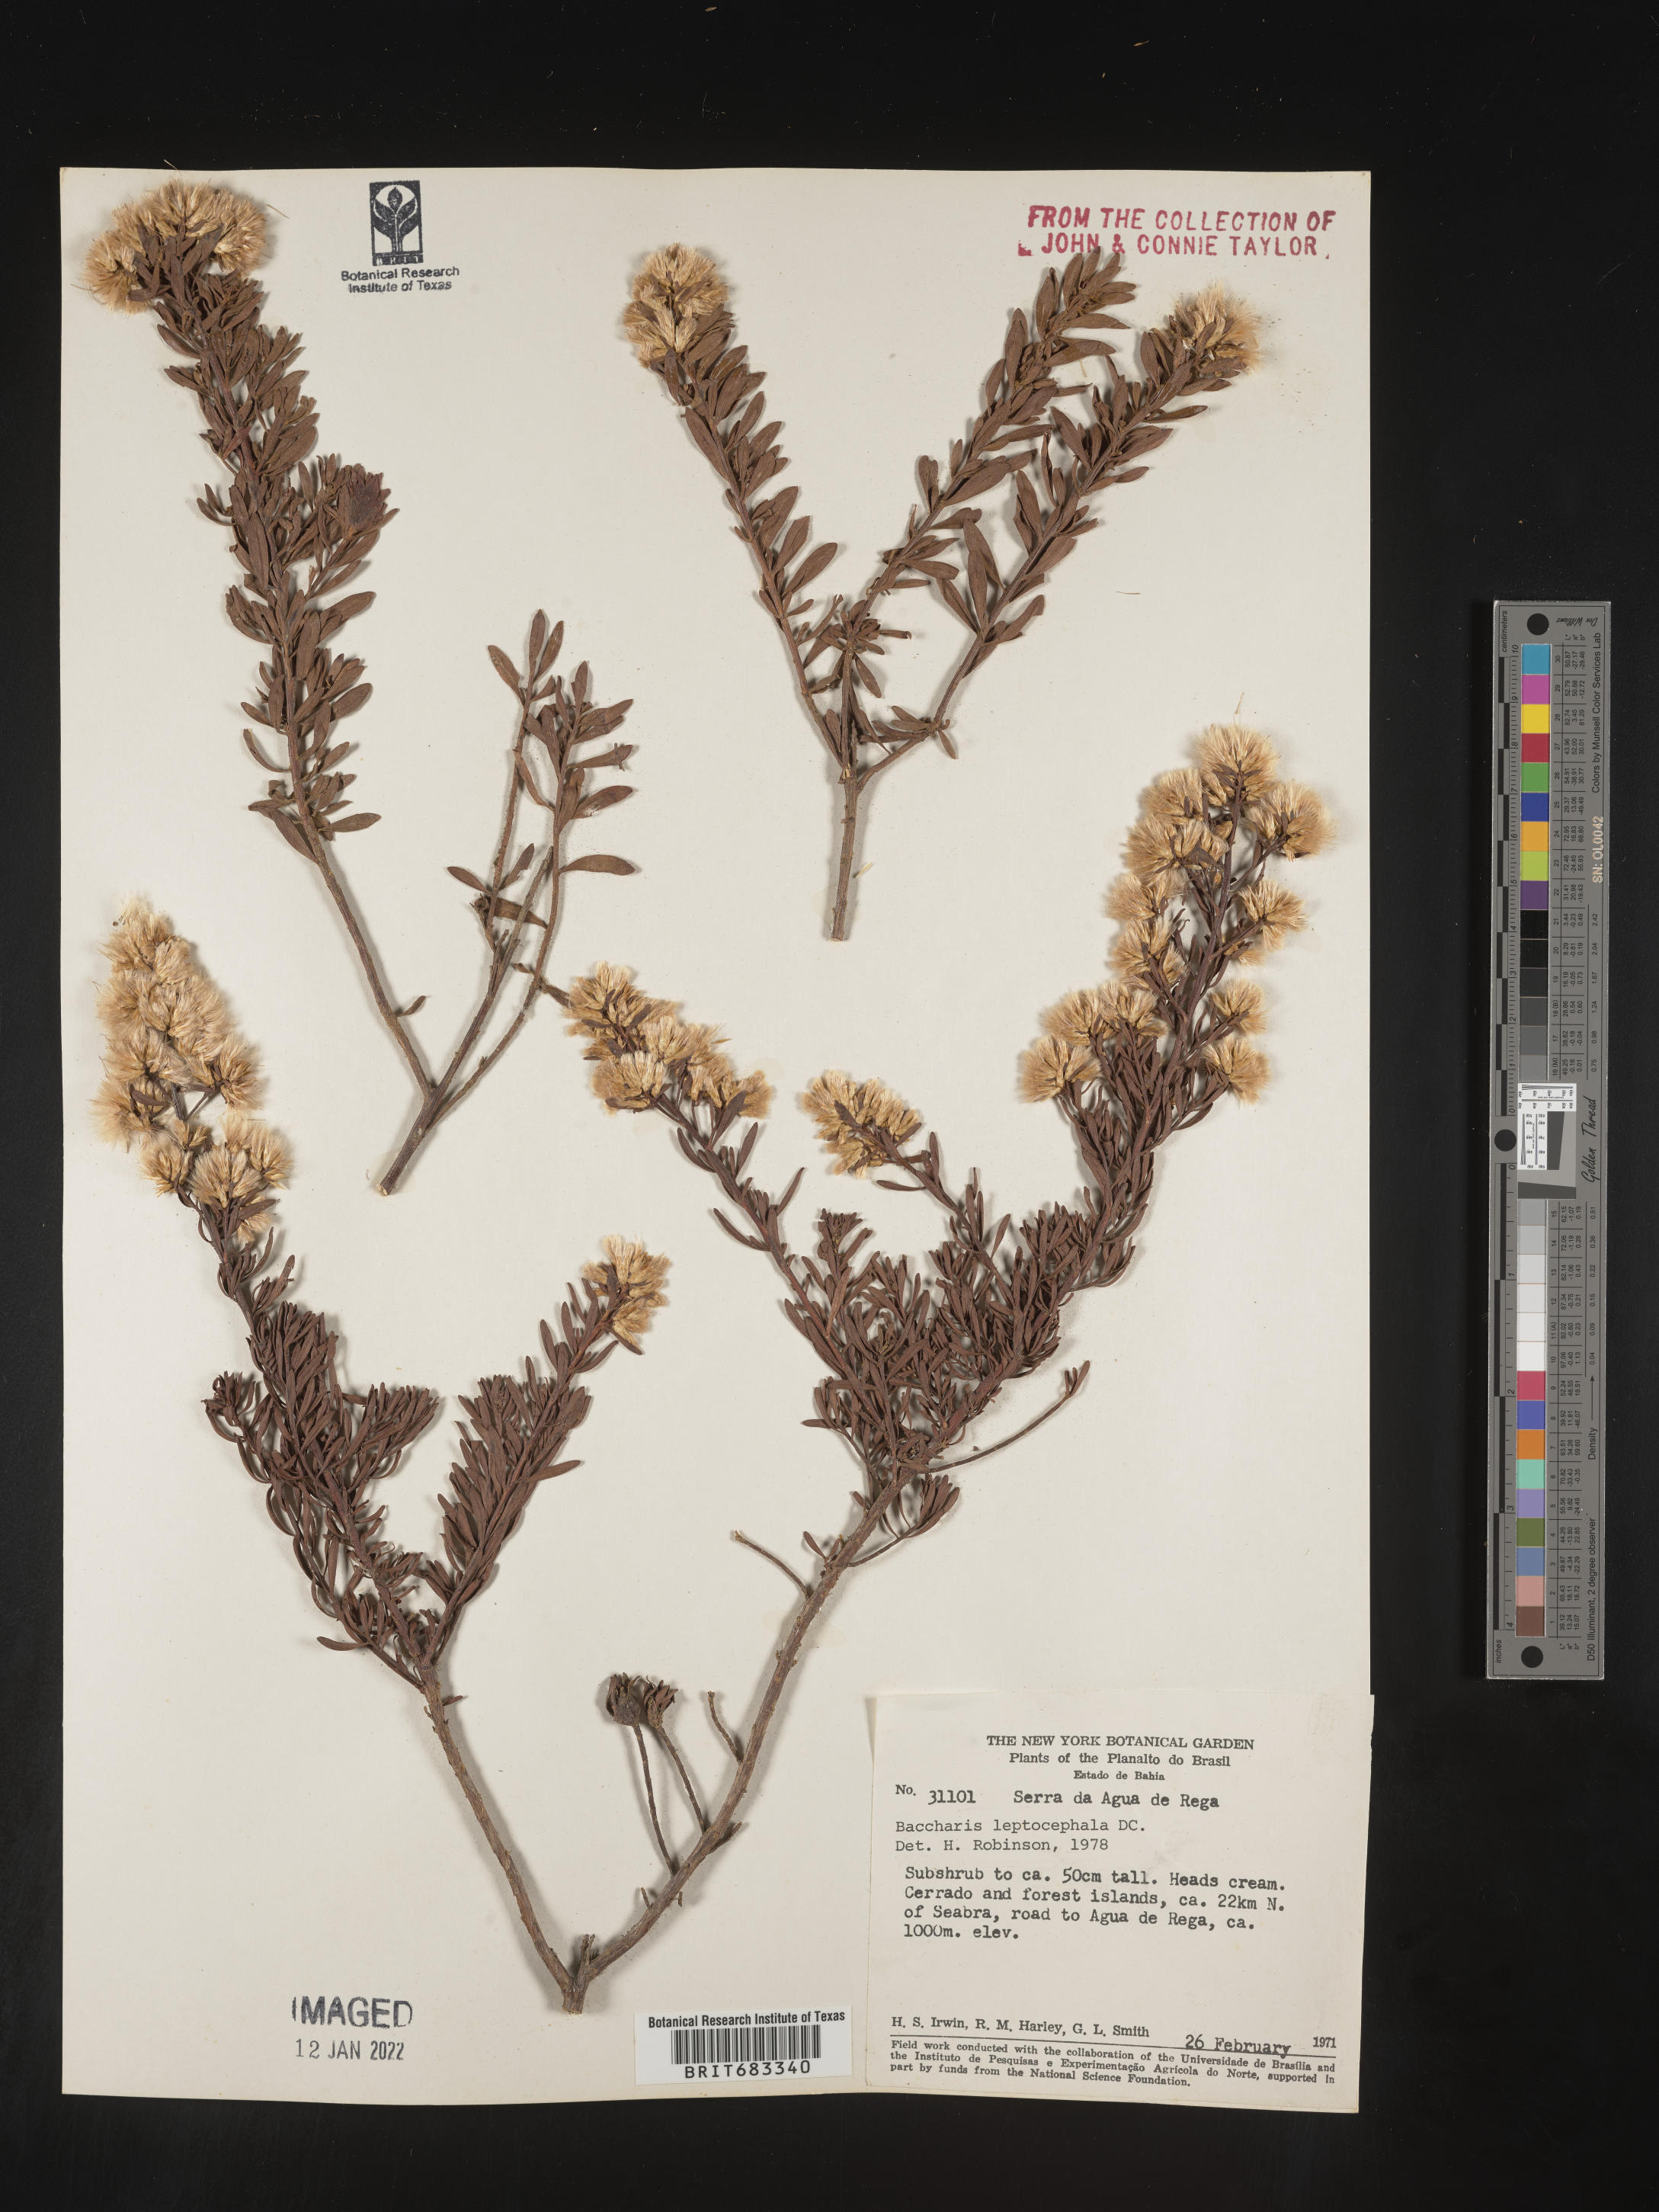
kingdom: Plantae
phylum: Tracheophyta
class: Magnoliopsida
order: Asterales
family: Asteraceae
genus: Baccharis
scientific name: Baccharis
